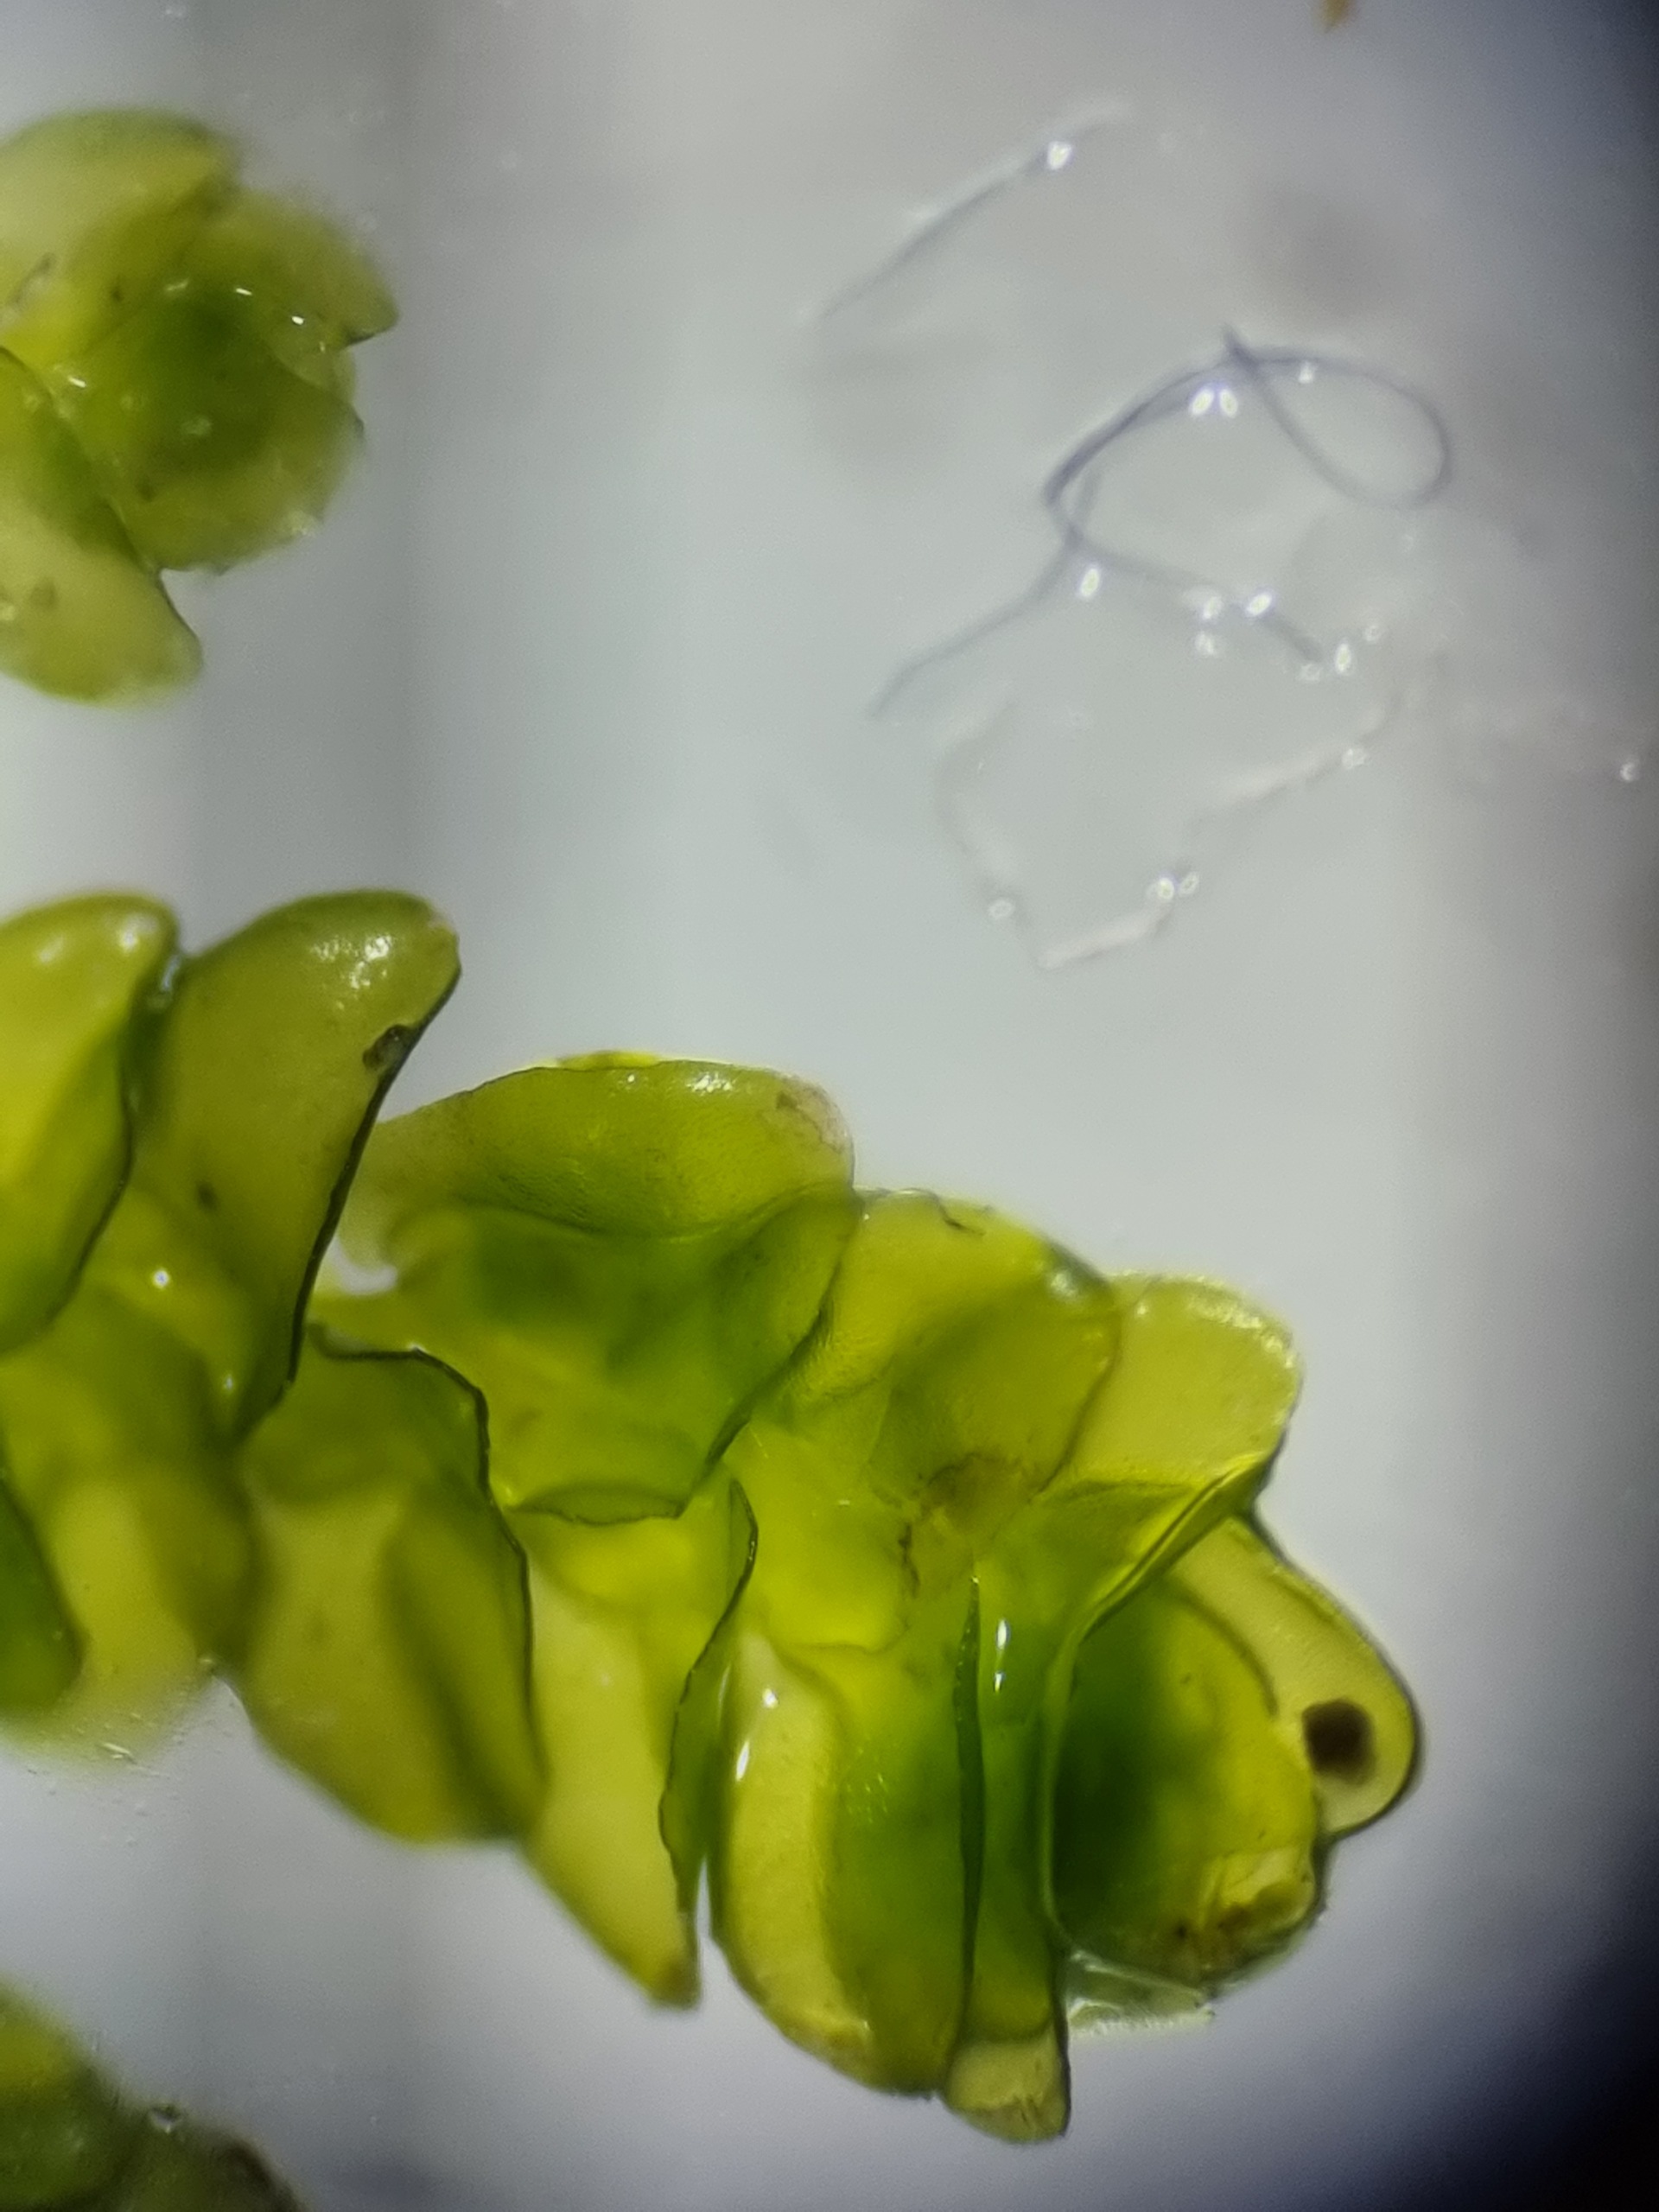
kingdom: Plantae
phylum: Marchantiophyta
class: Jungermanniopsida
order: Porellales
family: Porellaceae
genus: Porella
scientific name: Porella platyphylla
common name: Almindelig skælryg
